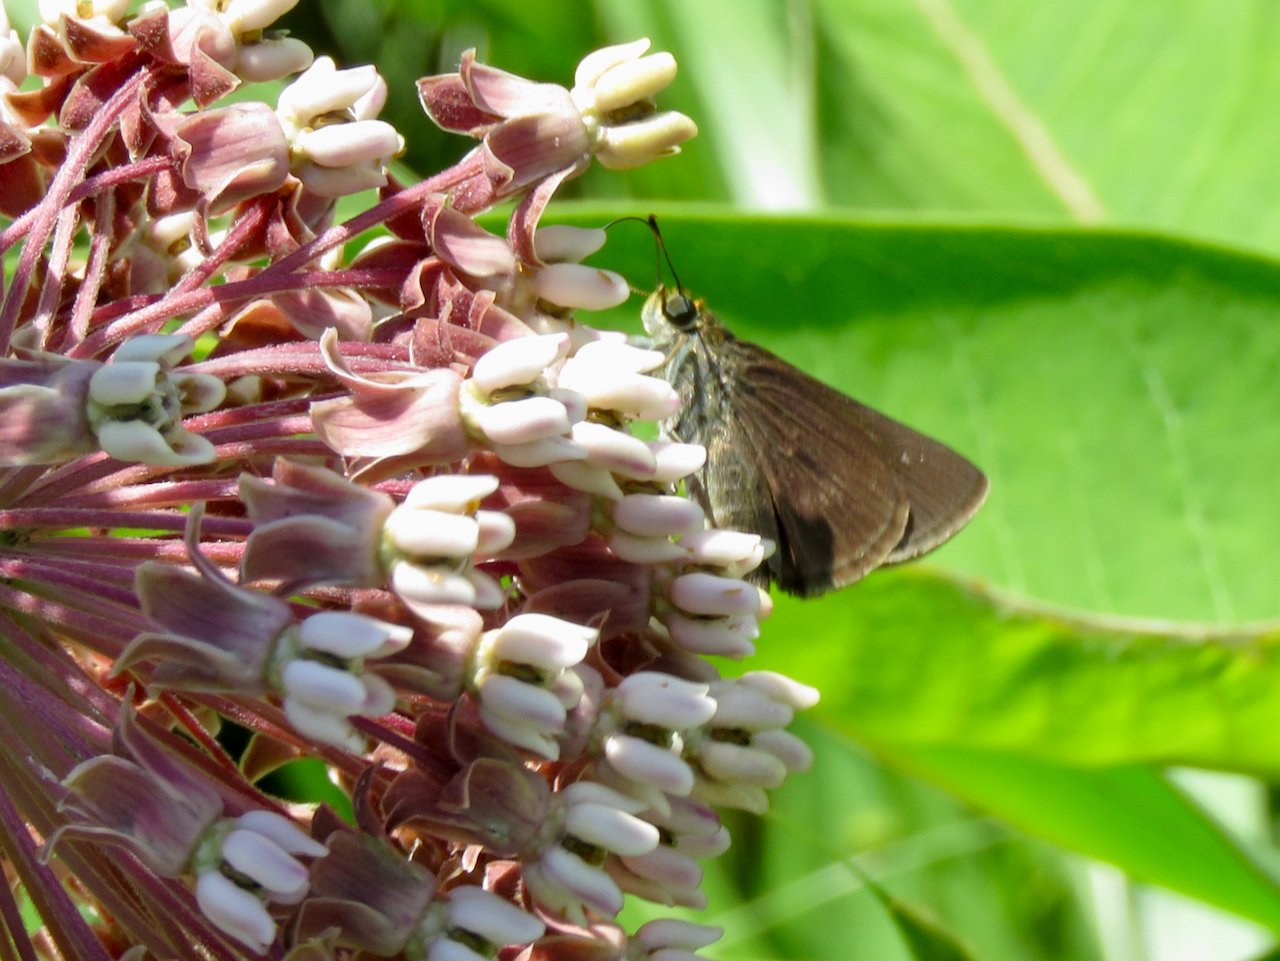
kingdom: Animalia
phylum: Arthropoda
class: Insecta
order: Lepidoptera
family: Hesperiidae
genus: Euphyes
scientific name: Euphyes vestris
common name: Dun Skipper
